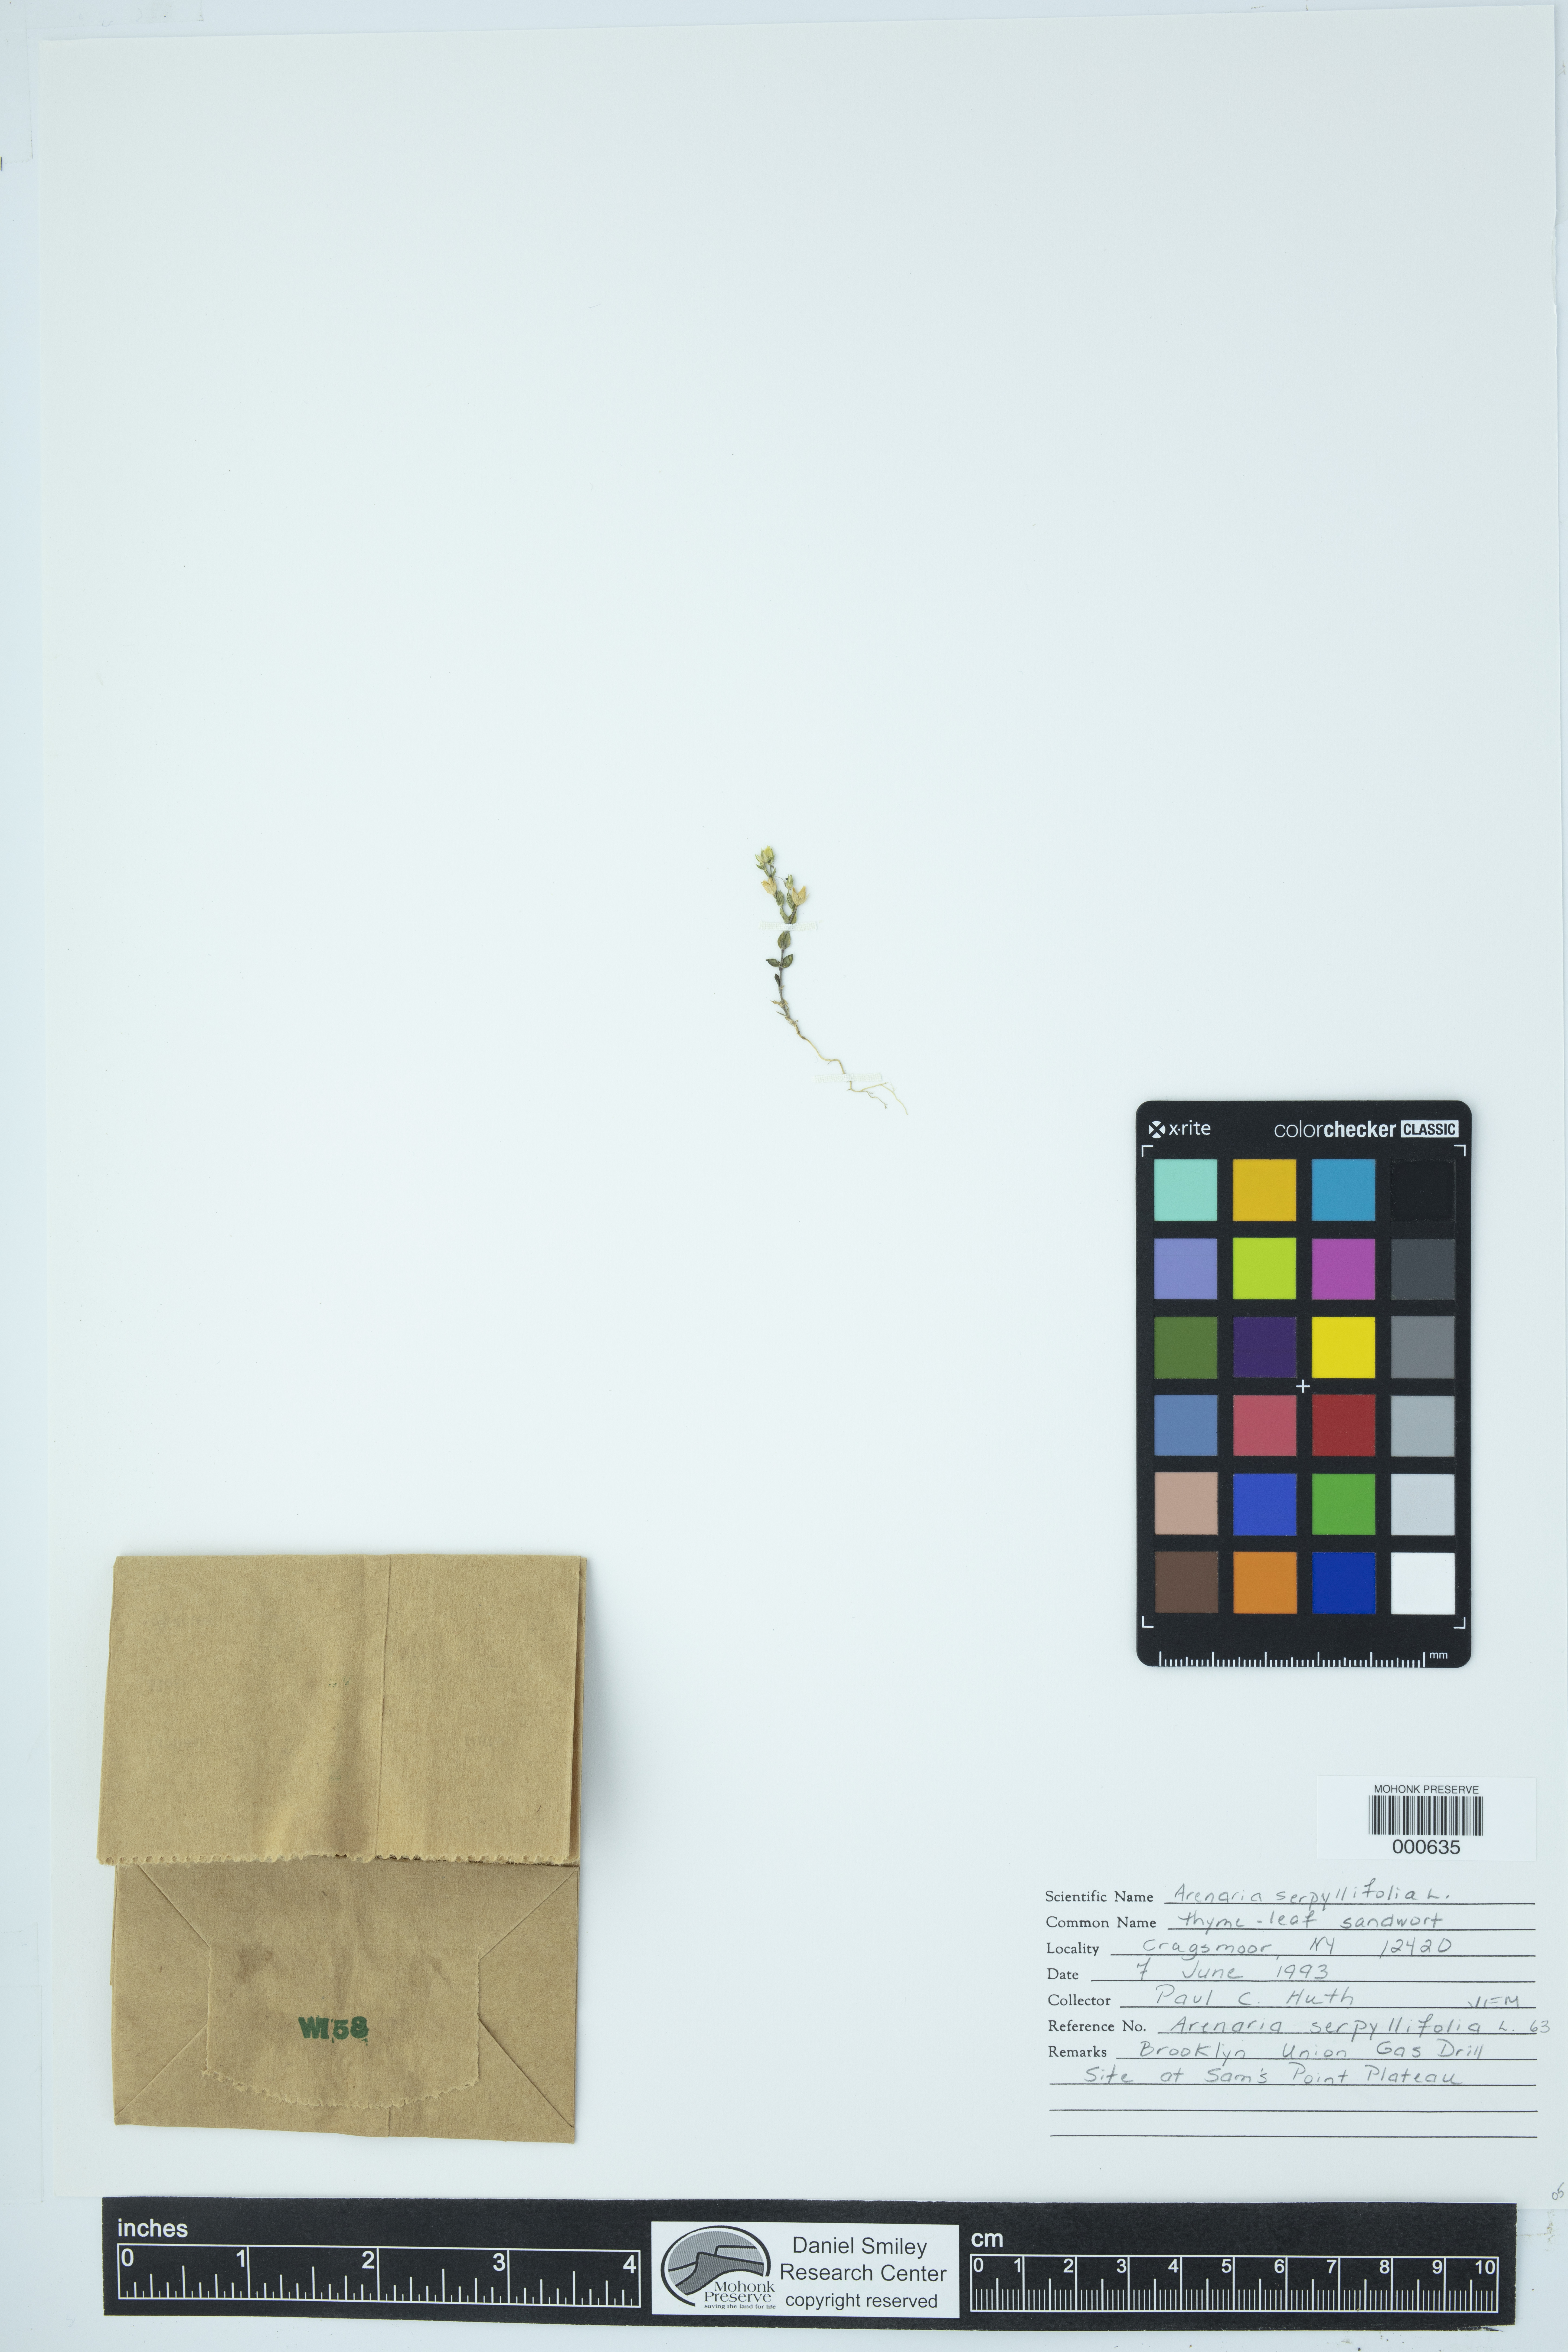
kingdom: Plantae
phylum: Tracheophyta
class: Magnoliopsida
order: Caryophyllales
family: Caryophyllaceae
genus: Arenaria
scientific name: Arenaria serpyllifolia
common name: Thyme-leaved sandwort
